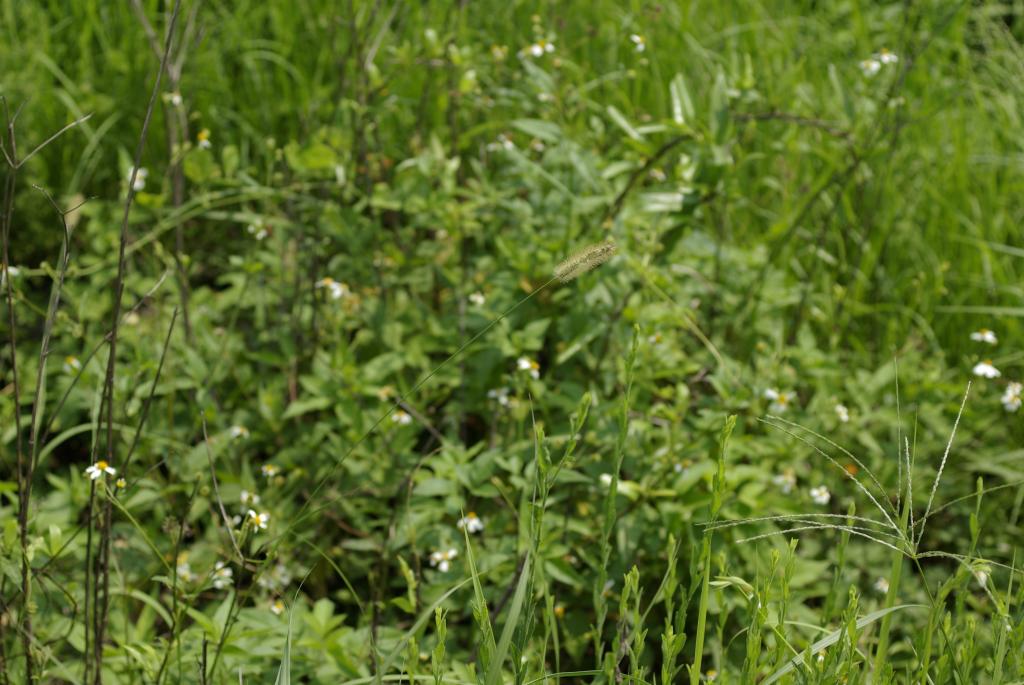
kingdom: Plantae
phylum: Tracheophyta
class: Liliopsida
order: Poales
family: Poaceae
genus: Setaria
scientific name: Setaria parviflora
